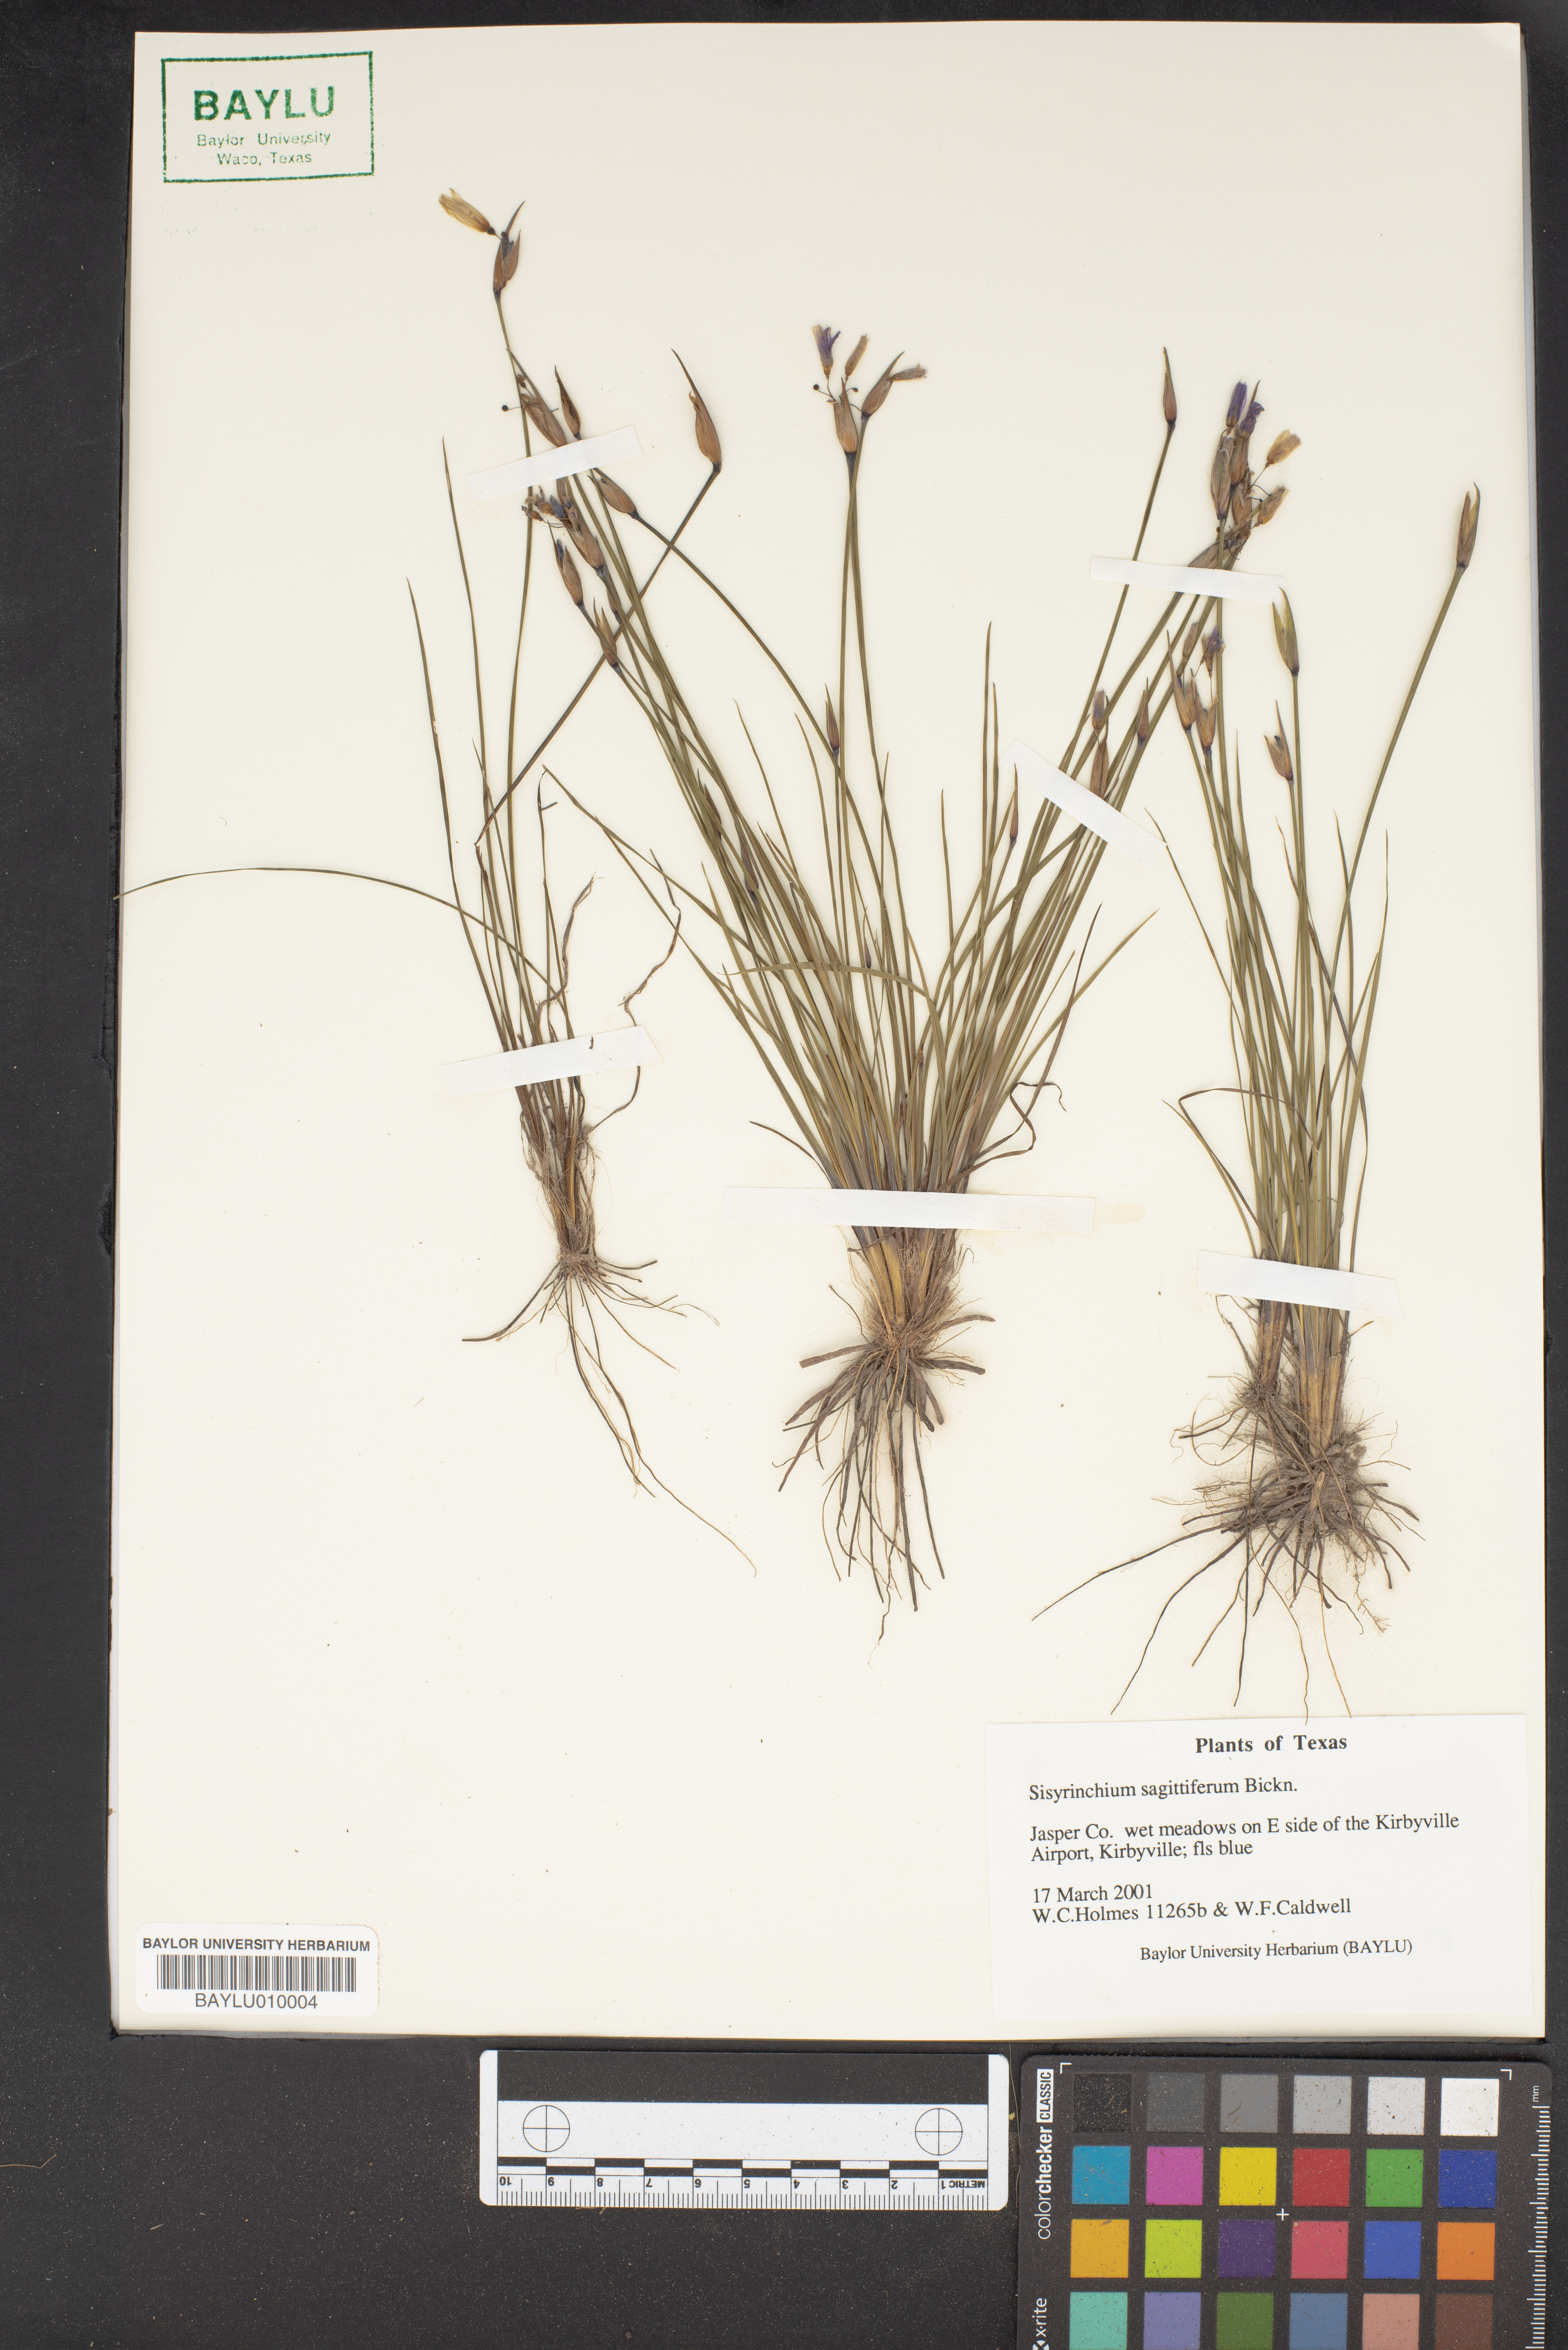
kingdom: Plantae
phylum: Tracheophyta
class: Liliopsida
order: Asparagales
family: Iridaceae
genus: Sisyrinchium
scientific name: Sisyrinchium sagittiferum
